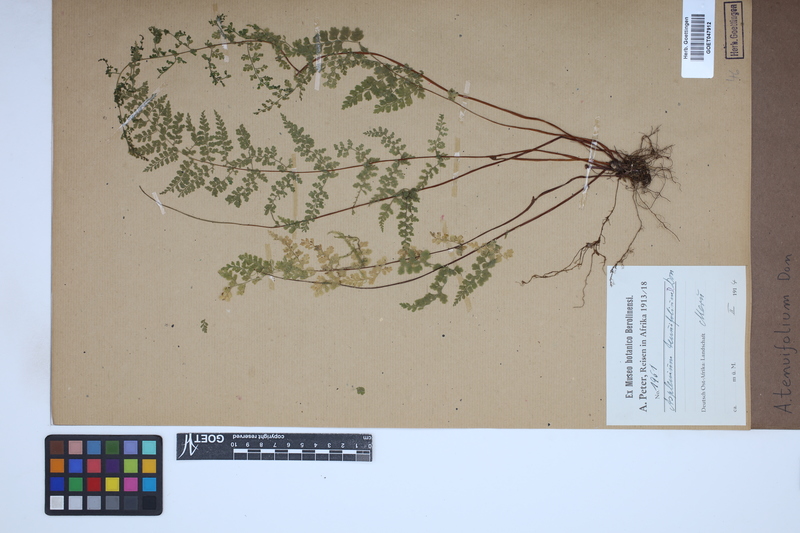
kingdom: Plantae
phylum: Tracheophyta
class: Polypodiopsida
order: Polypodiales
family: Aspleniaceae
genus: Asplenium
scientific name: Asplenium tenuifolium
